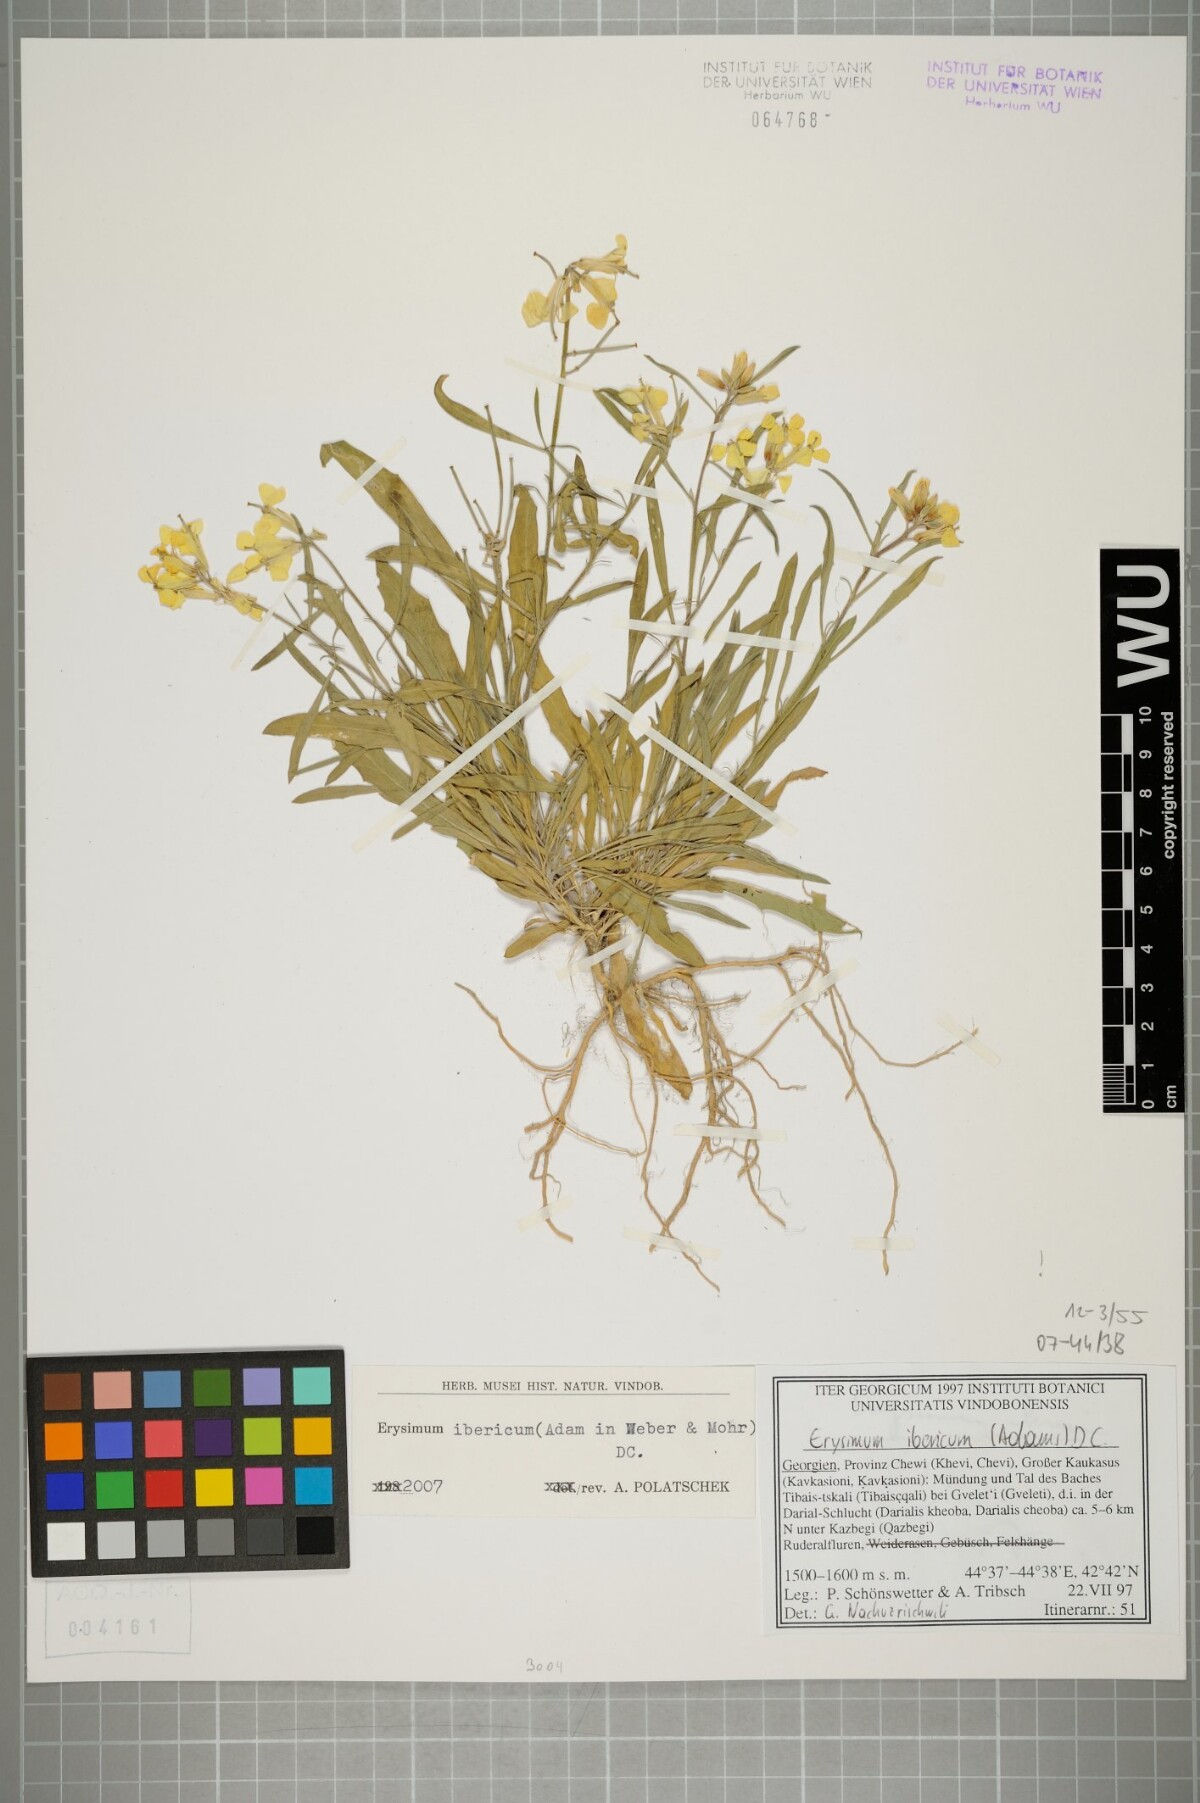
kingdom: Plantae
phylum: Tracheophyta
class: Magnoliopsida
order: Brassicales
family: Brassicaceae
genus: Erysimum
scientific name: Erysimum ibericum
